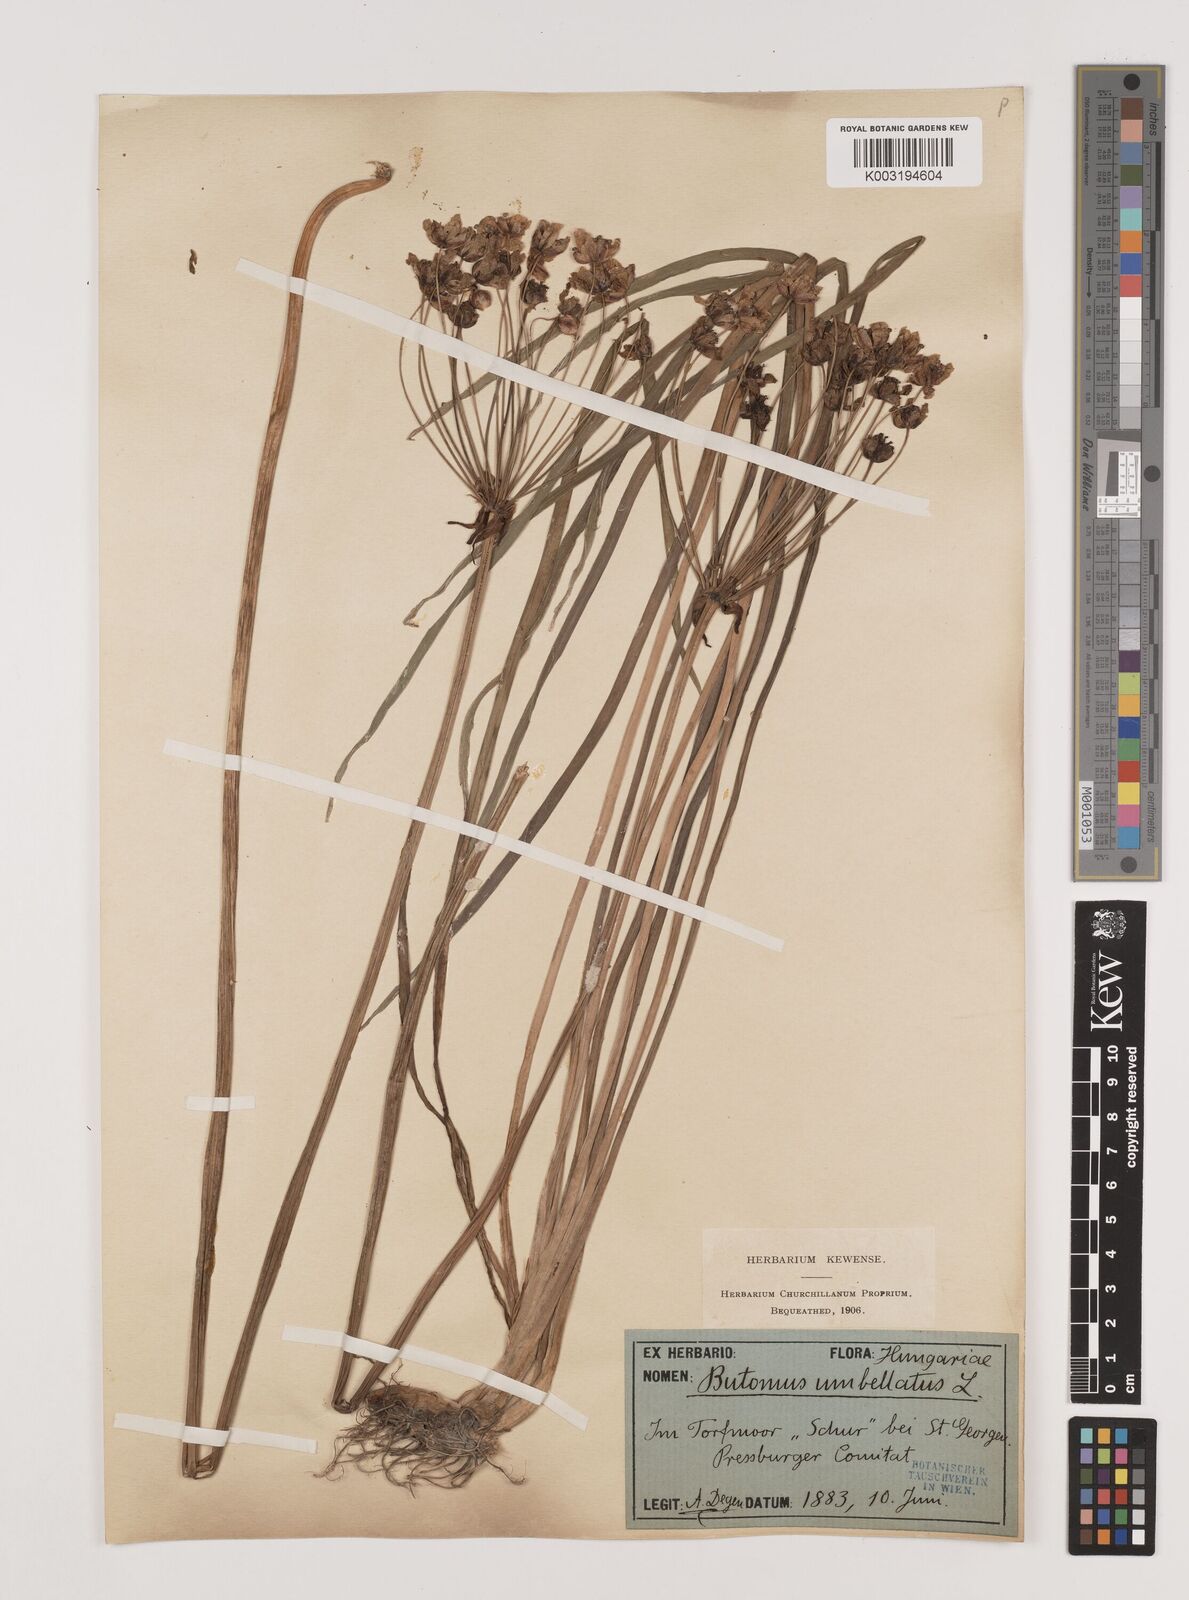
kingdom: Plantae
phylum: Tracheophyta
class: Liliopsida
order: Alismatales
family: Butomaceae
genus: Butomus
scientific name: Butomus umbellatus
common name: Flowering-rush
